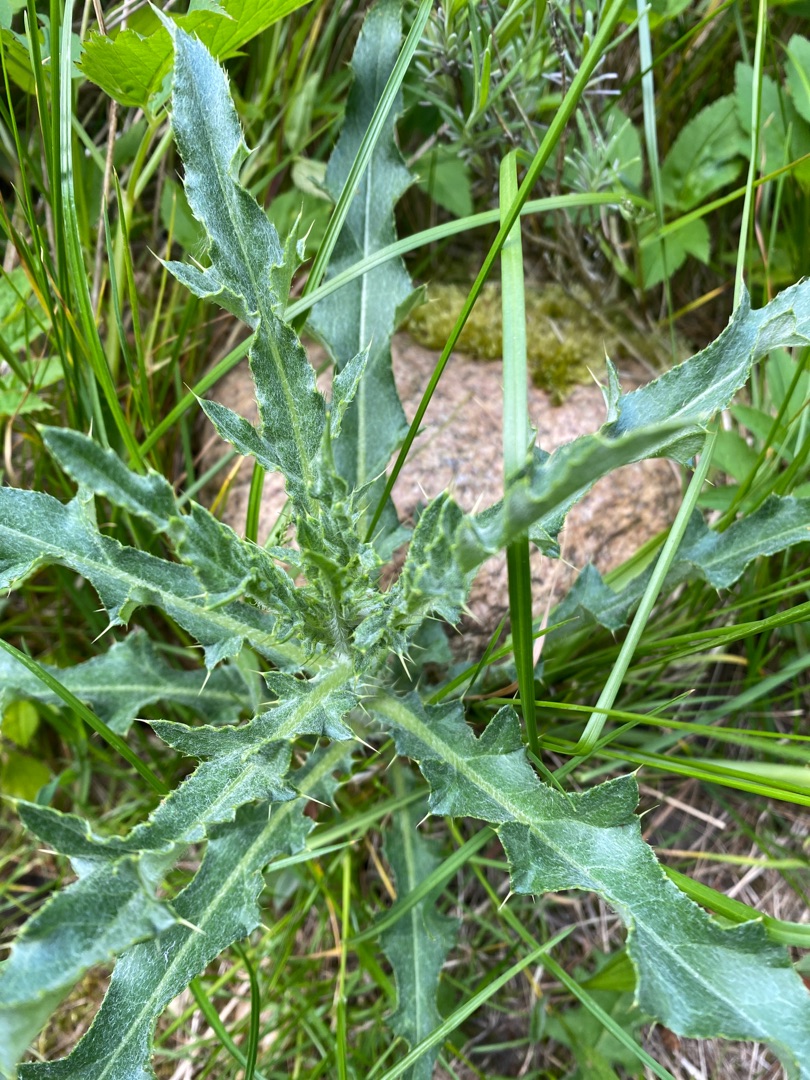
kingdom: Plantae
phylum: Tracheophyta
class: Magnoliopsida
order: Asterales
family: Asteraceae
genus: Cirsium
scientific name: Cirsium arvense
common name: Ager-tidsel
